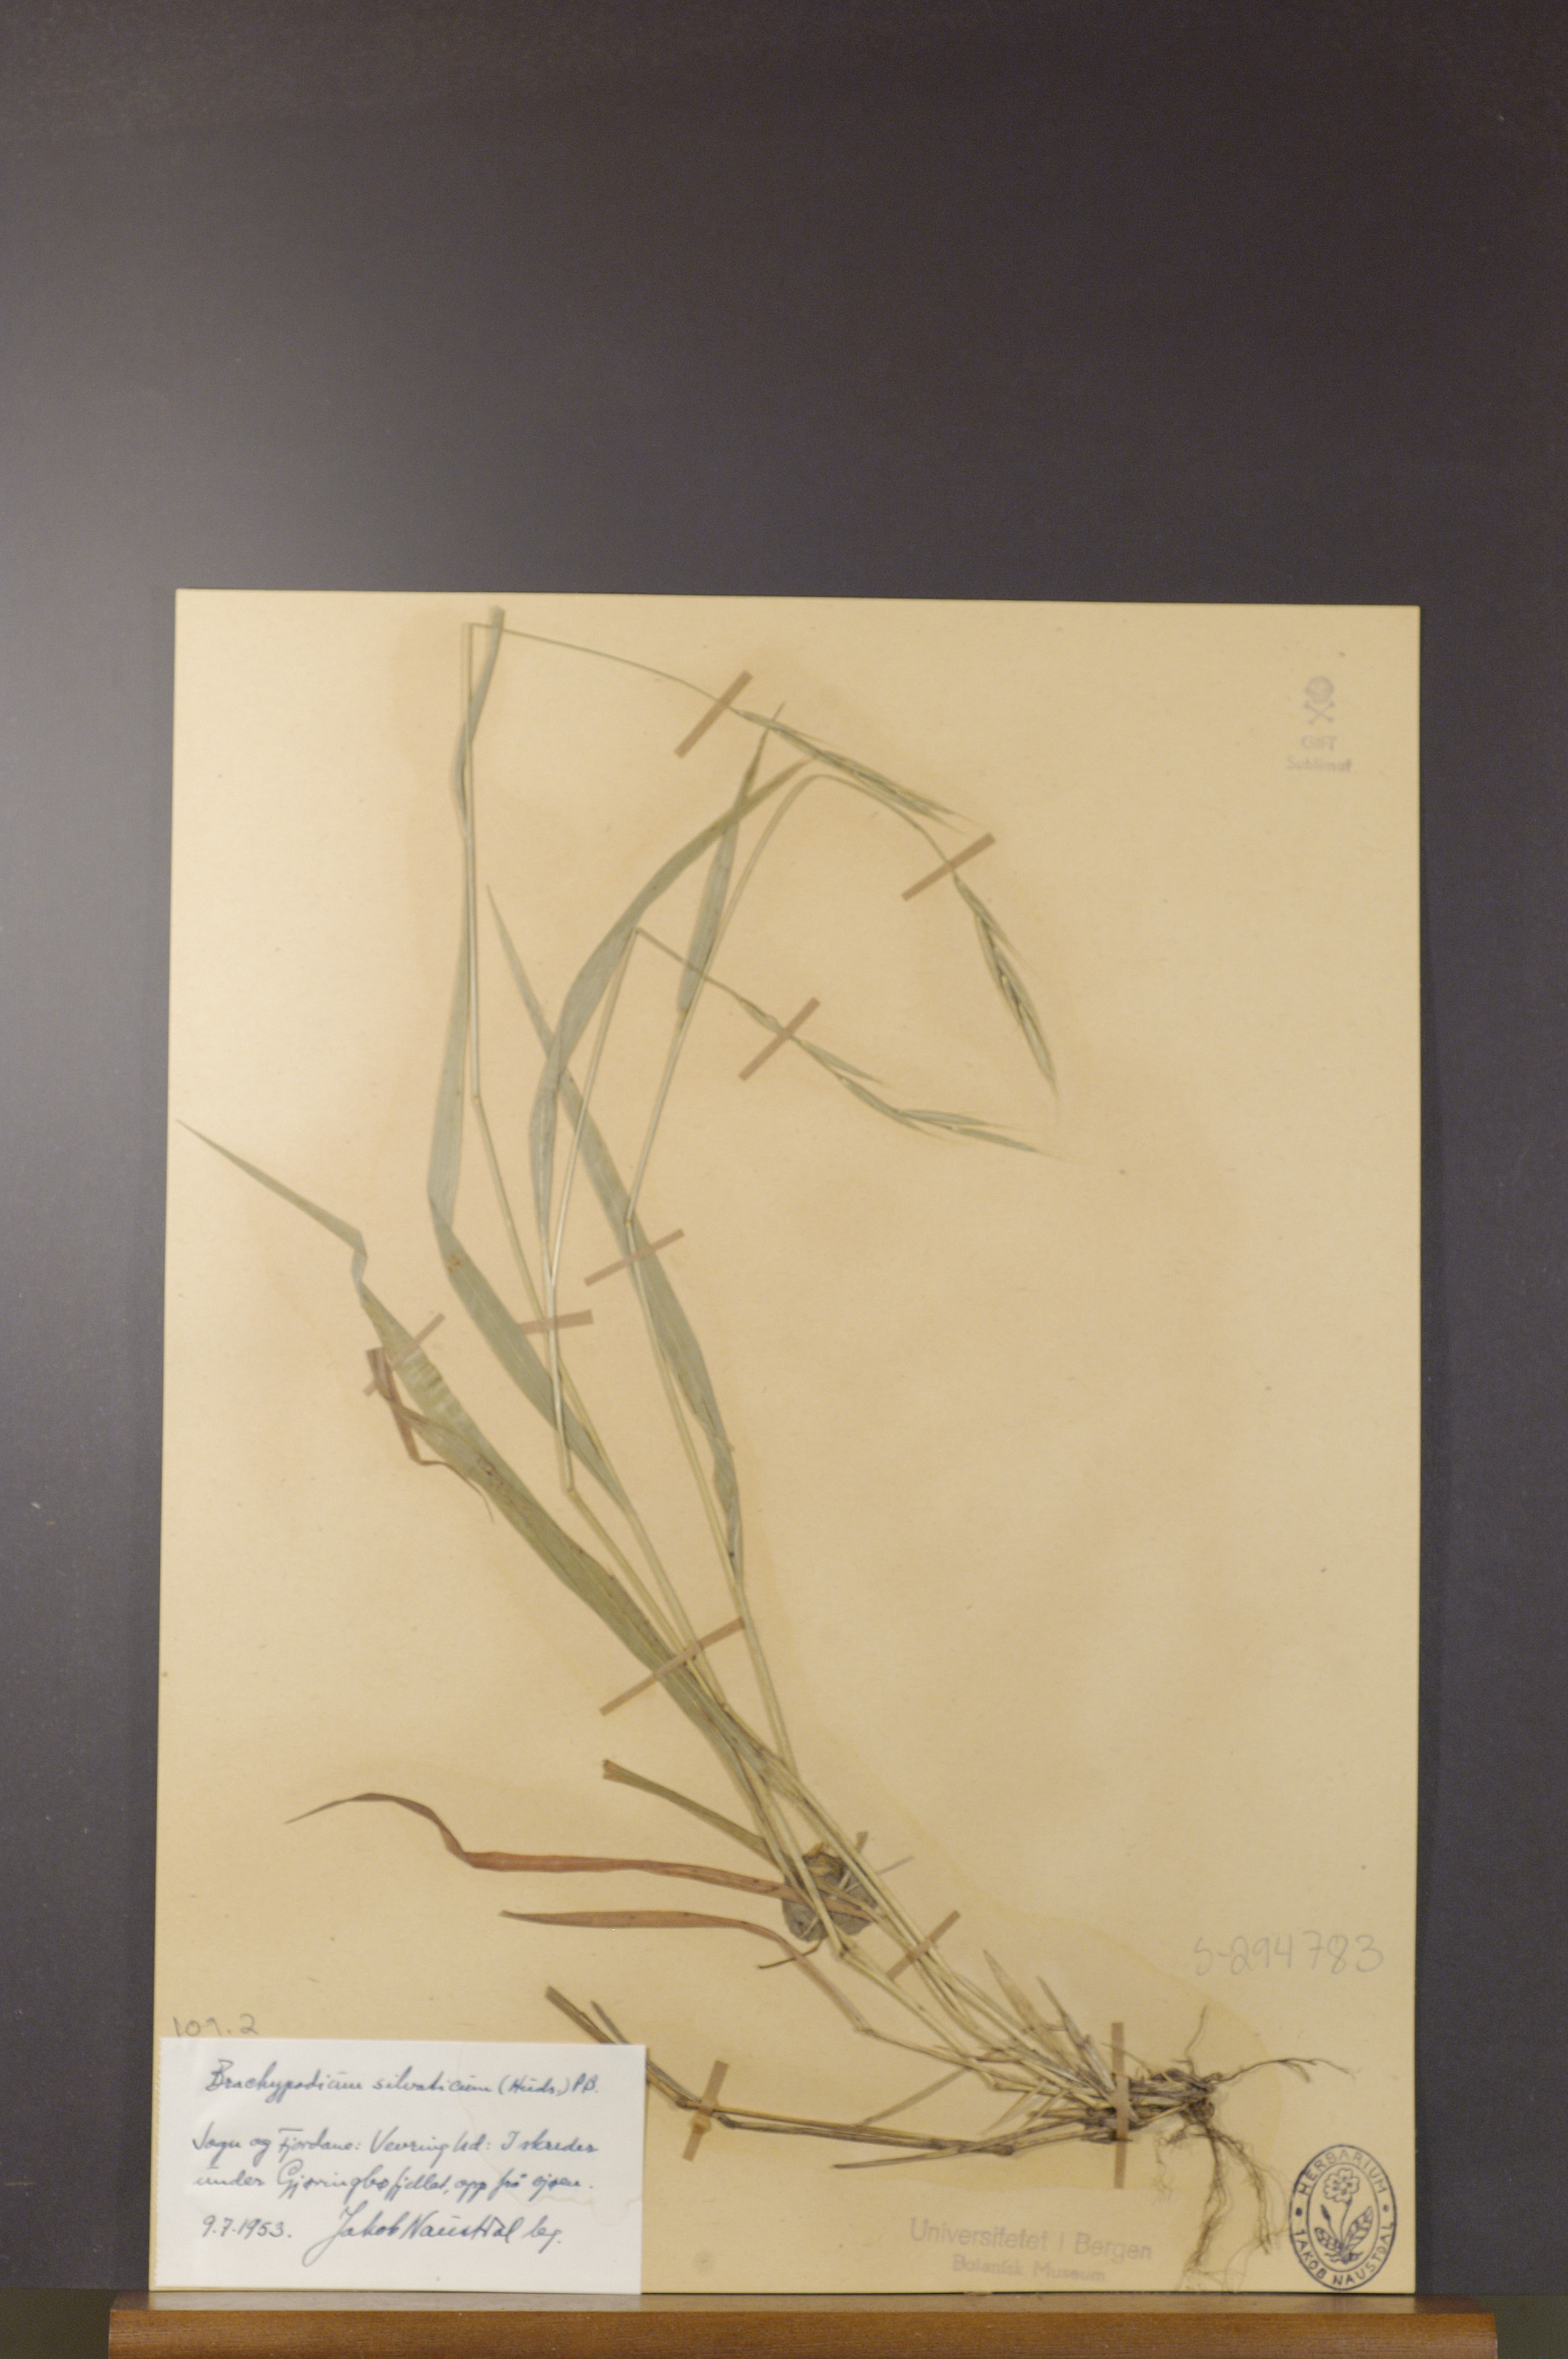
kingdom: Plantae
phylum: Tracheophyta
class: Liliopsida
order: Poales
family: Poaceae
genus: Brachypodium
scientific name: Brachypodium sylvaticum
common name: False-brome
